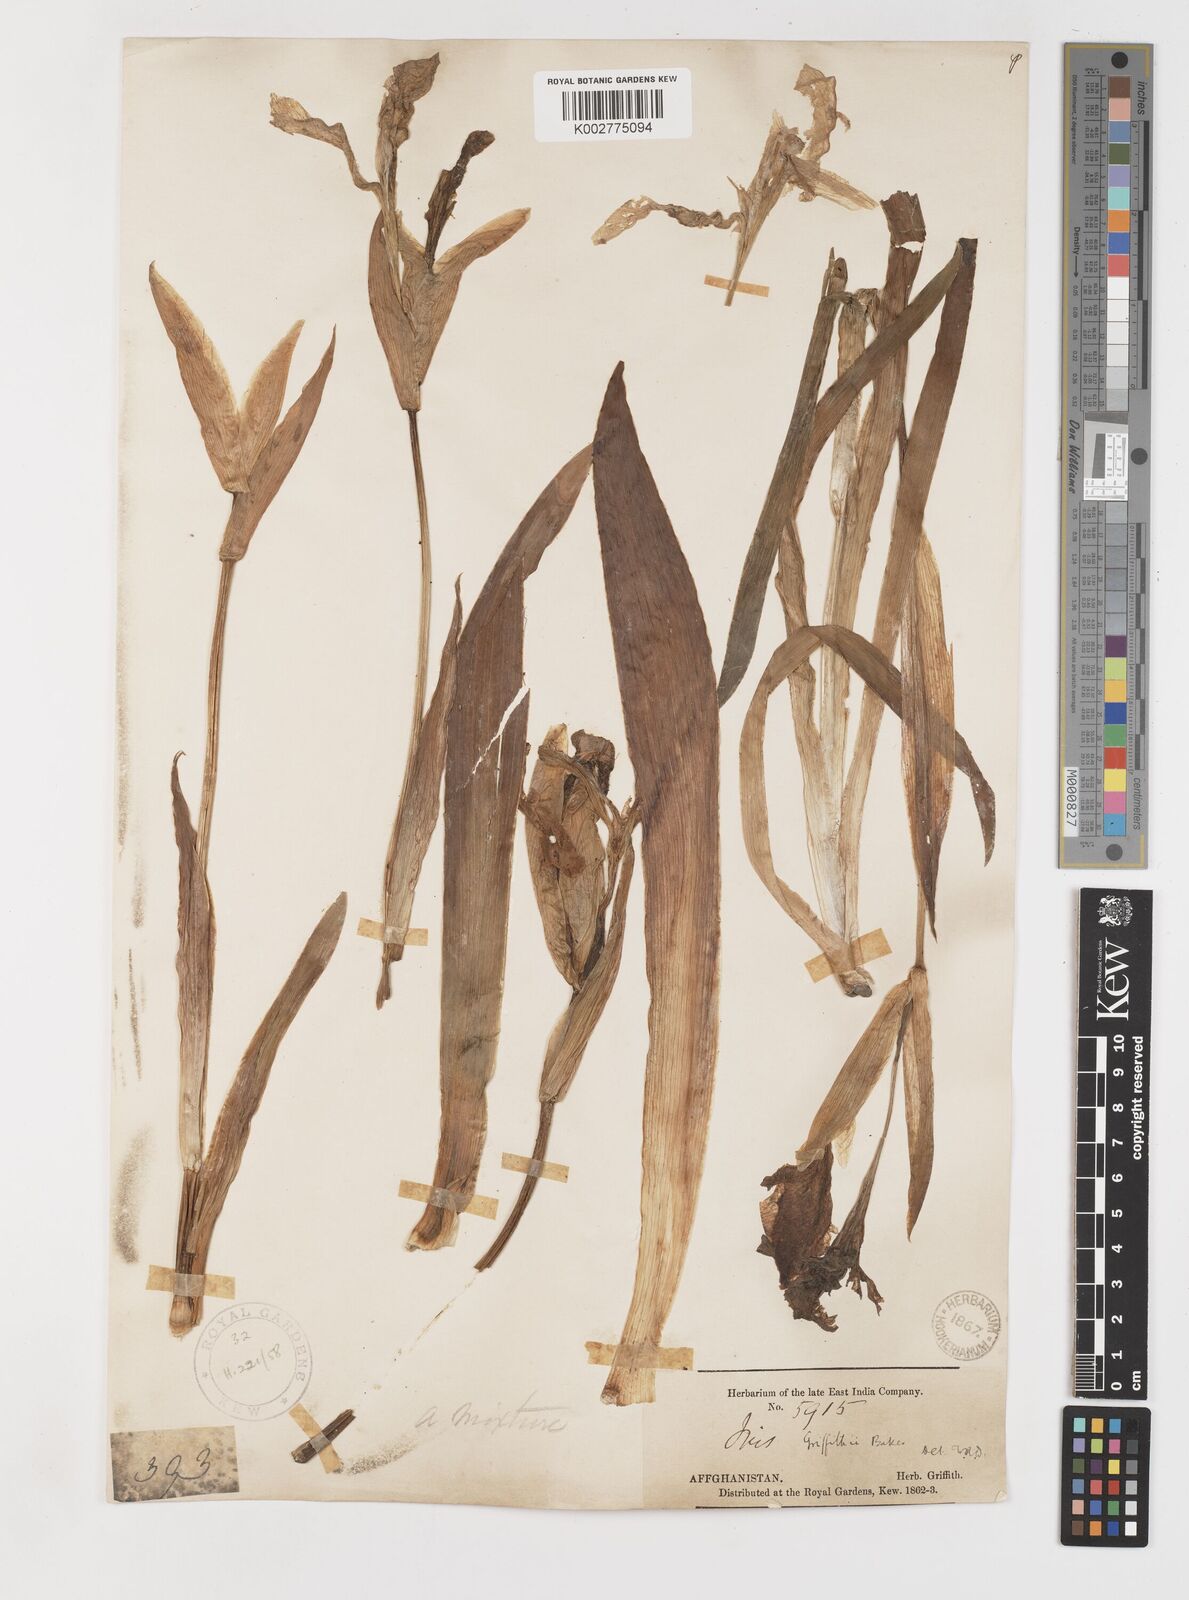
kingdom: Plantae
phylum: Tracheophyta
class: Liliopsida
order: Asparagales
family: Iridaceae
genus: Iris
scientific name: Iris griffithii
